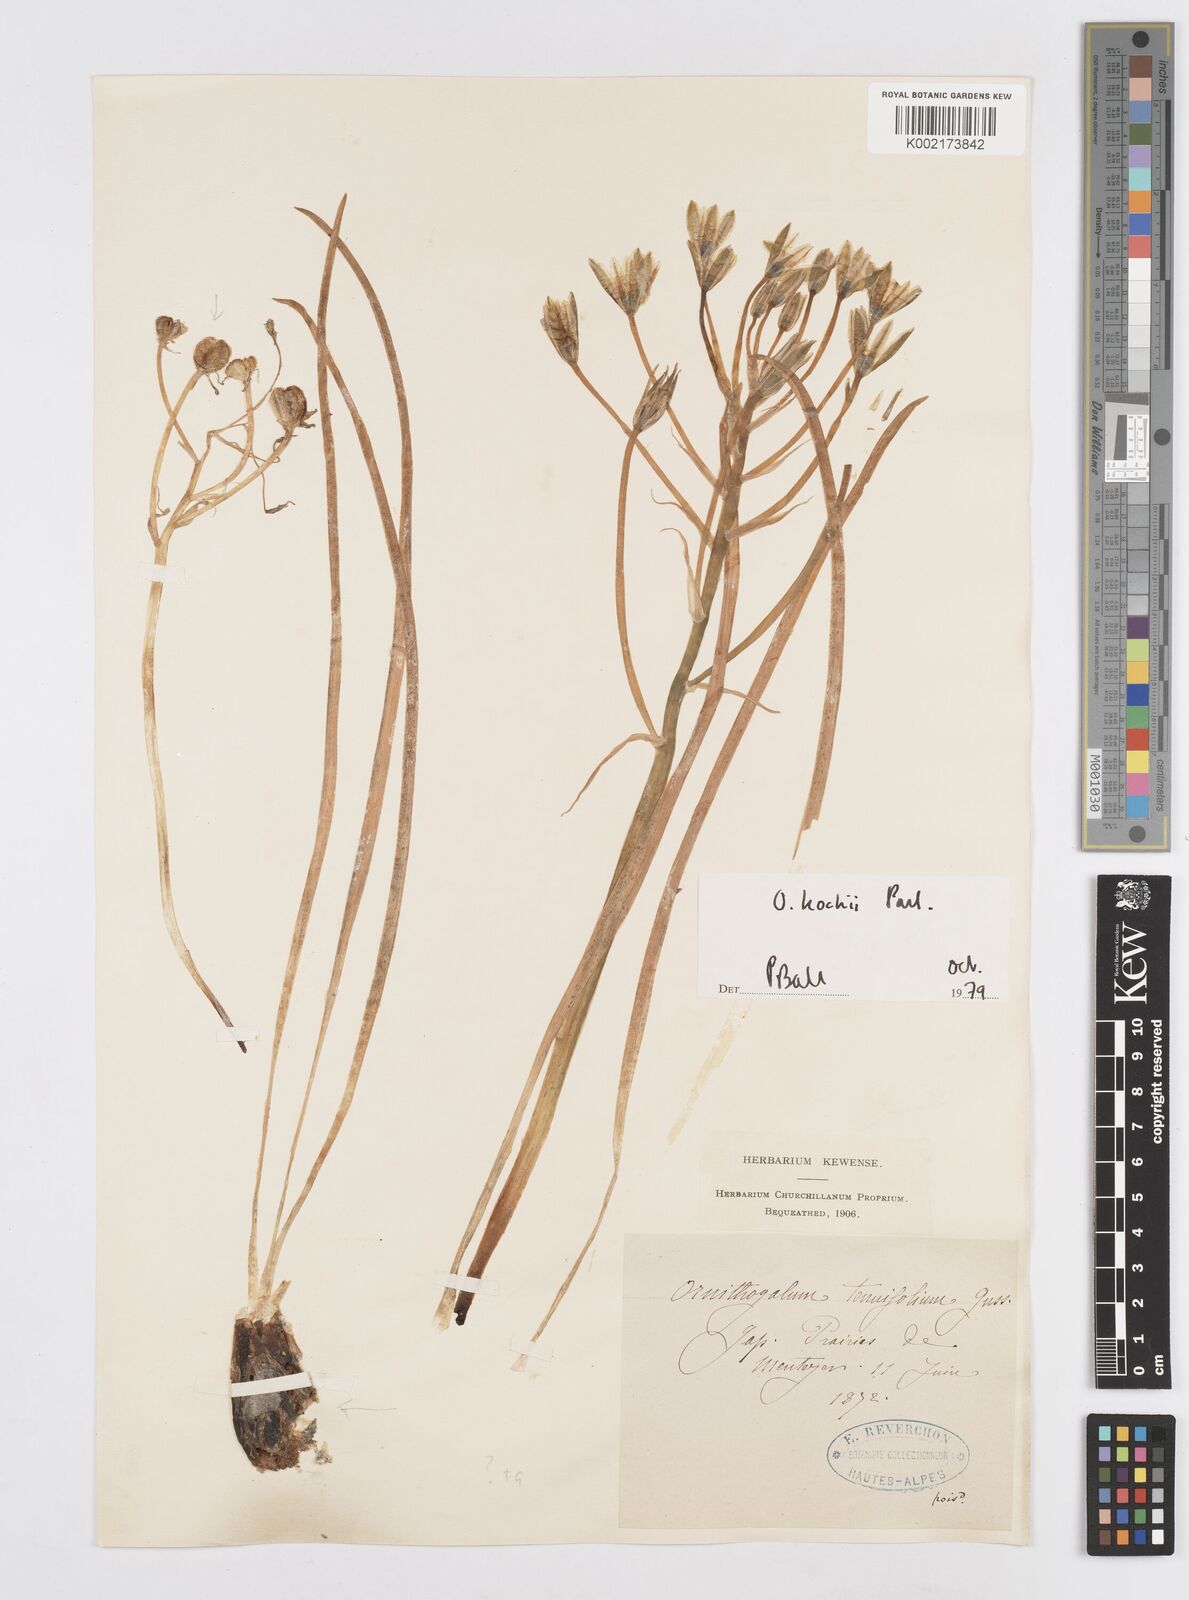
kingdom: Plantae
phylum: Tracheophyta
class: Liliopsida
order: Asparagales
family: Asparagaceae
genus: Ornithogalum
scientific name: Ornithogalum orthophyllum
